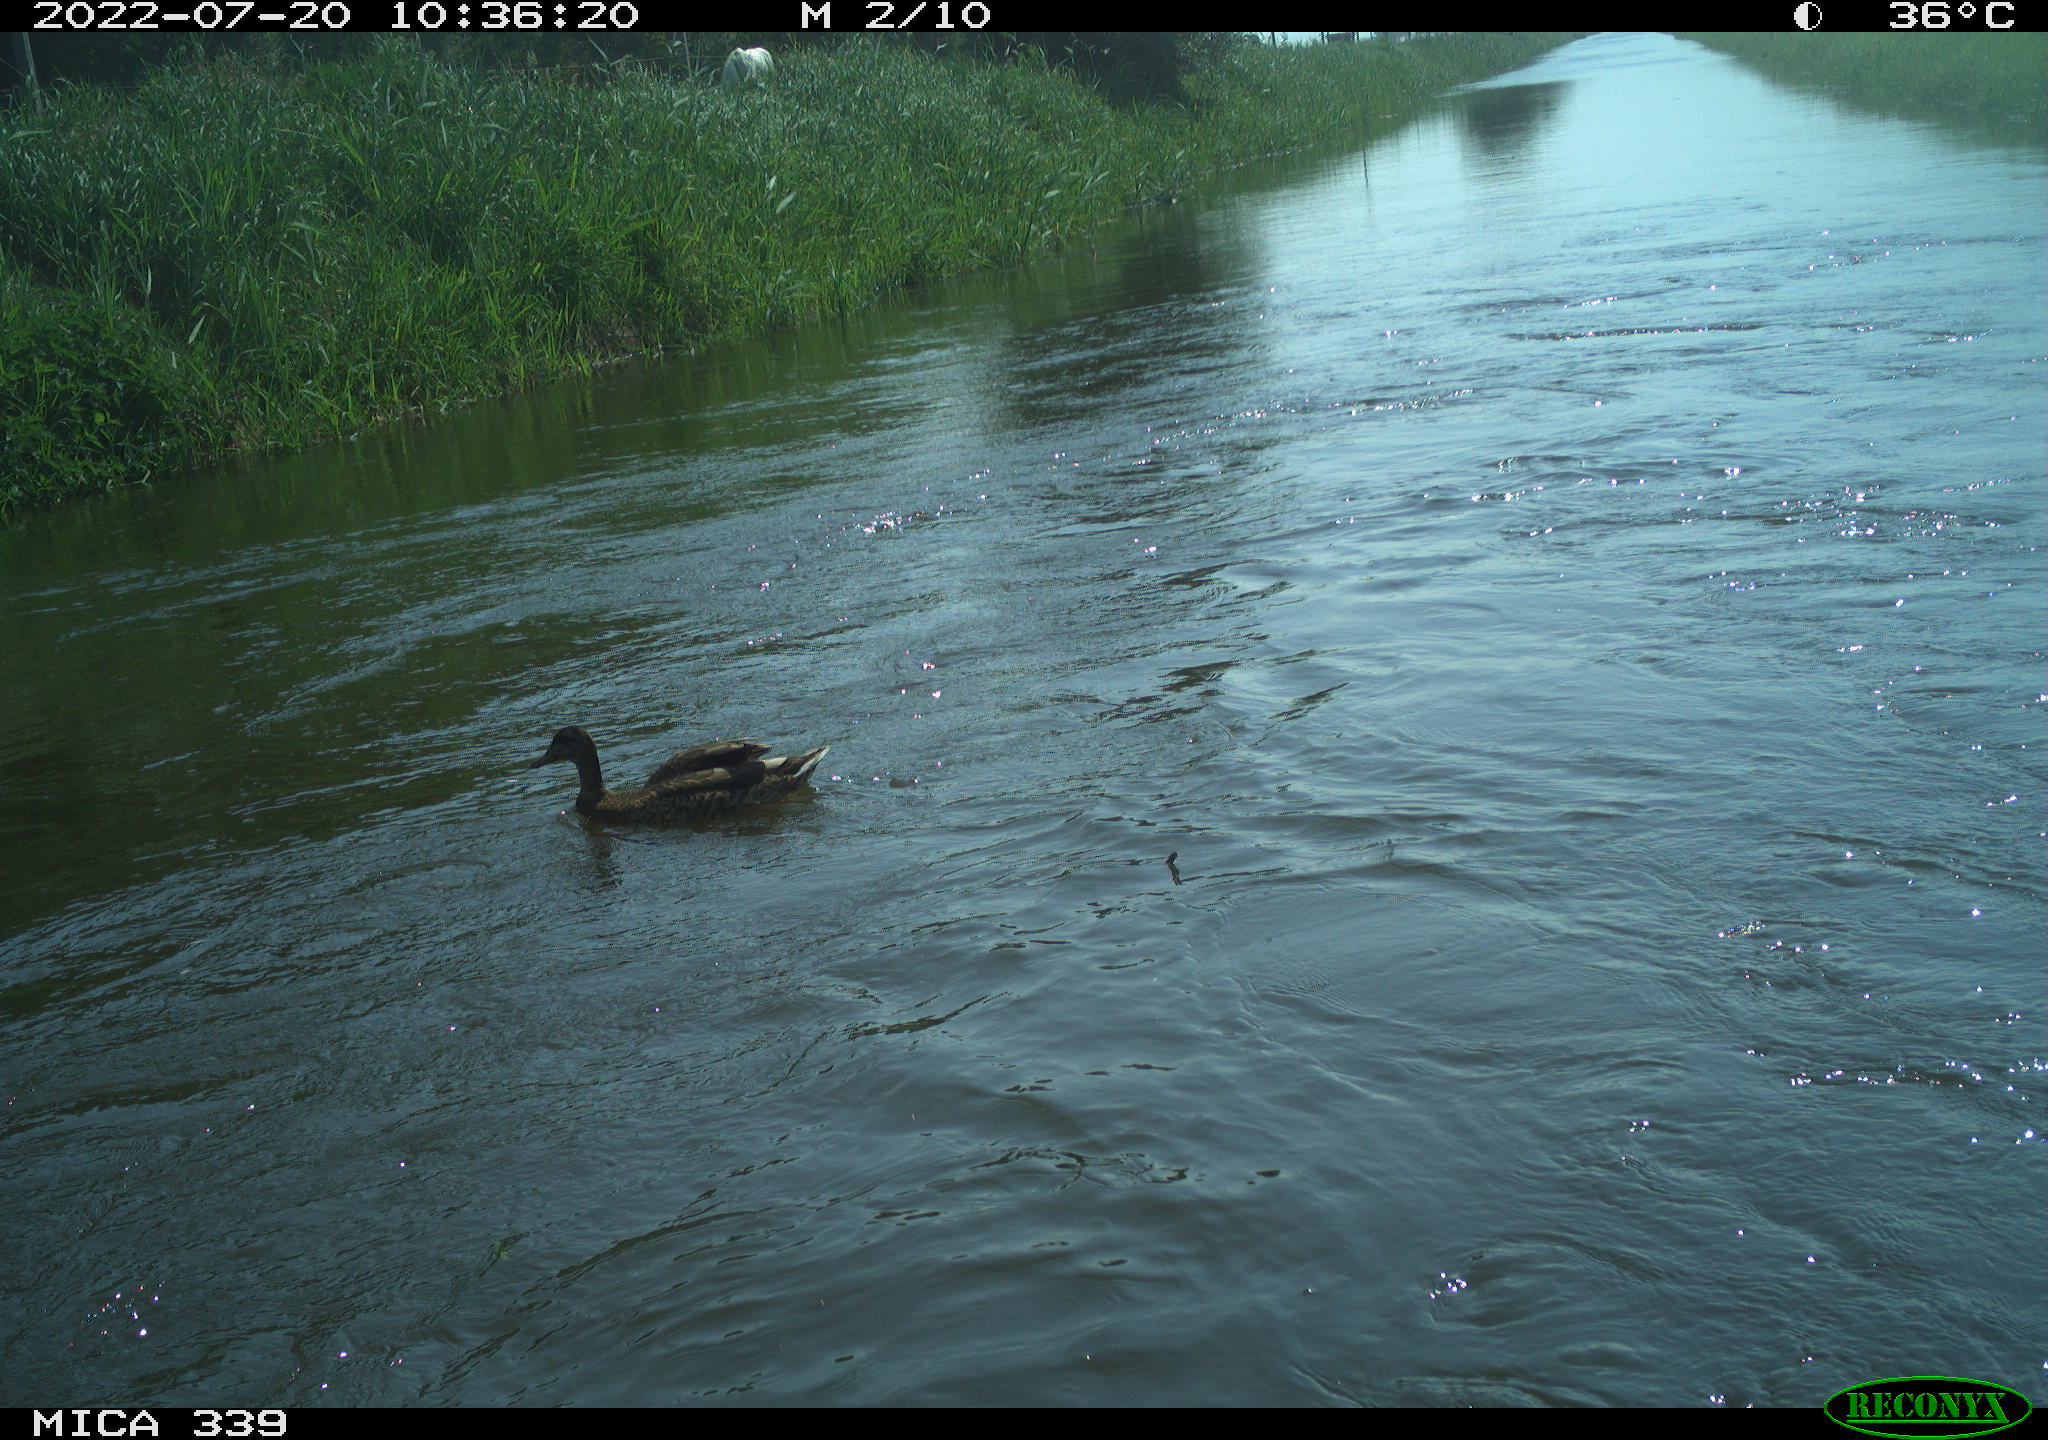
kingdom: Animalia
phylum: Chordata
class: Aves
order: Anseriformes
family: Anatidae
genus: Anas
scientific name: Anas platyrhynchos
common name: Mallard
